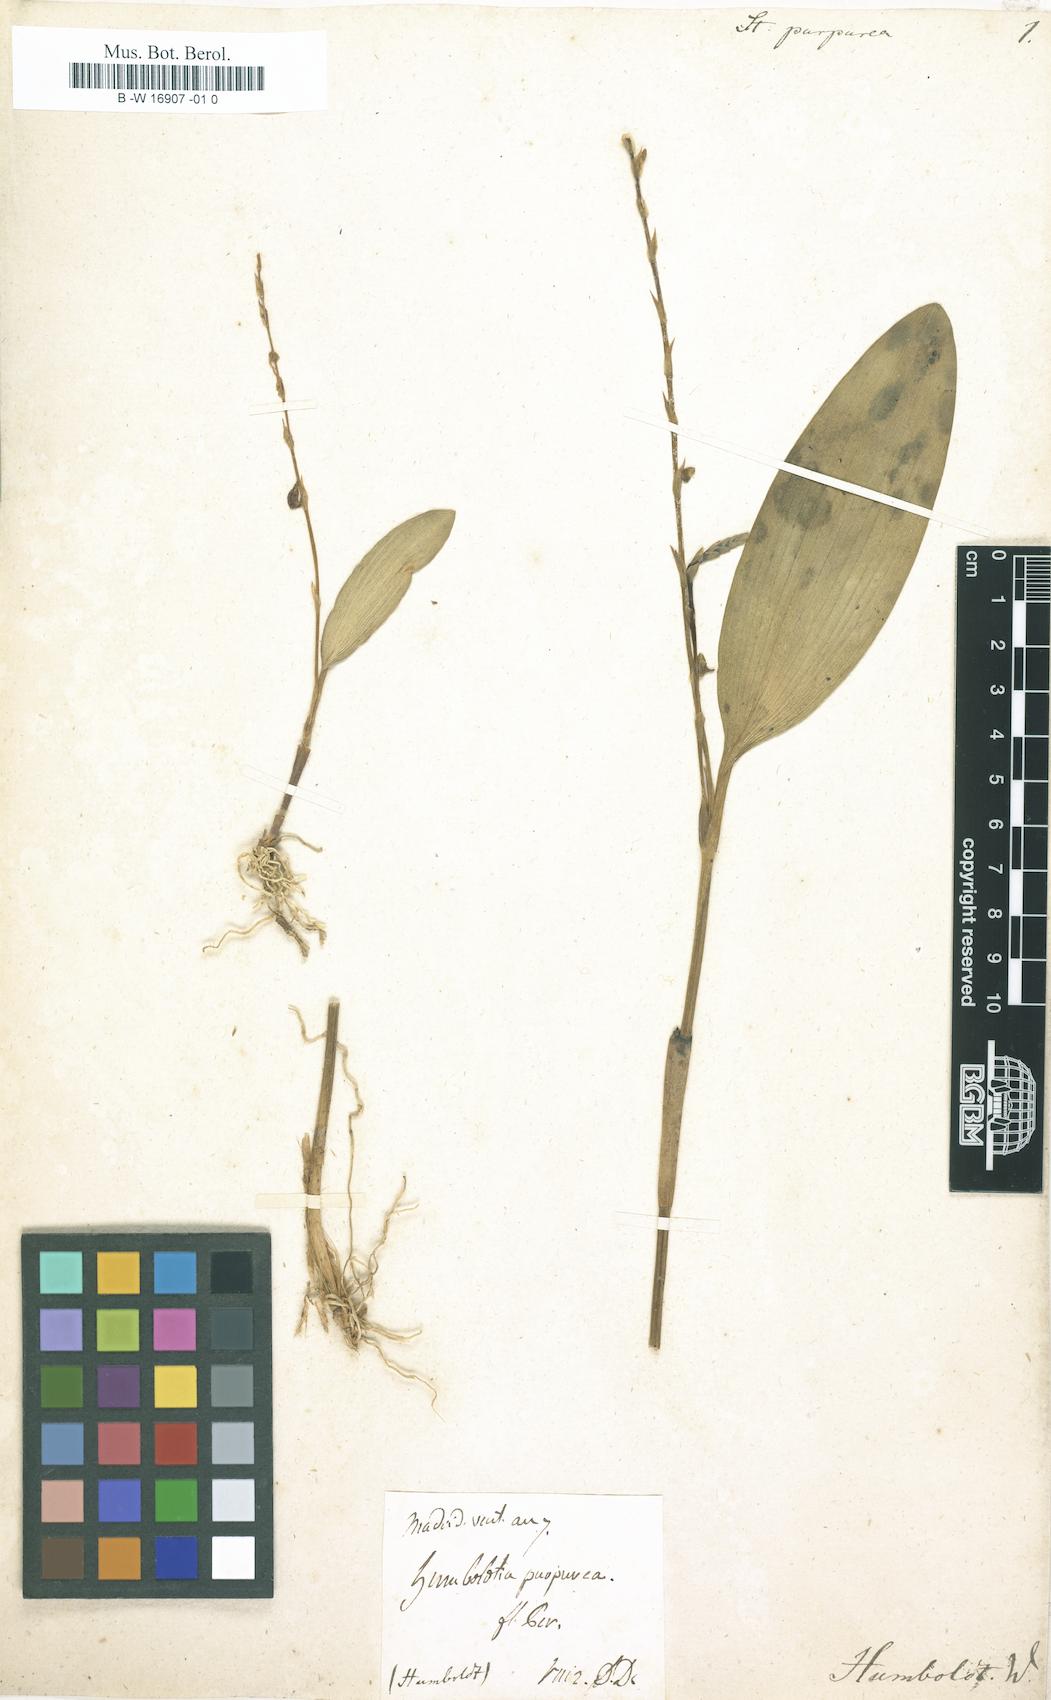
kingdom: Plantae
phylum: Tracheophyta
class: Liliopsida
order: Asparagales
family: Orchidaceae
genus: Stelis
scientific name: Stelis purpurea
